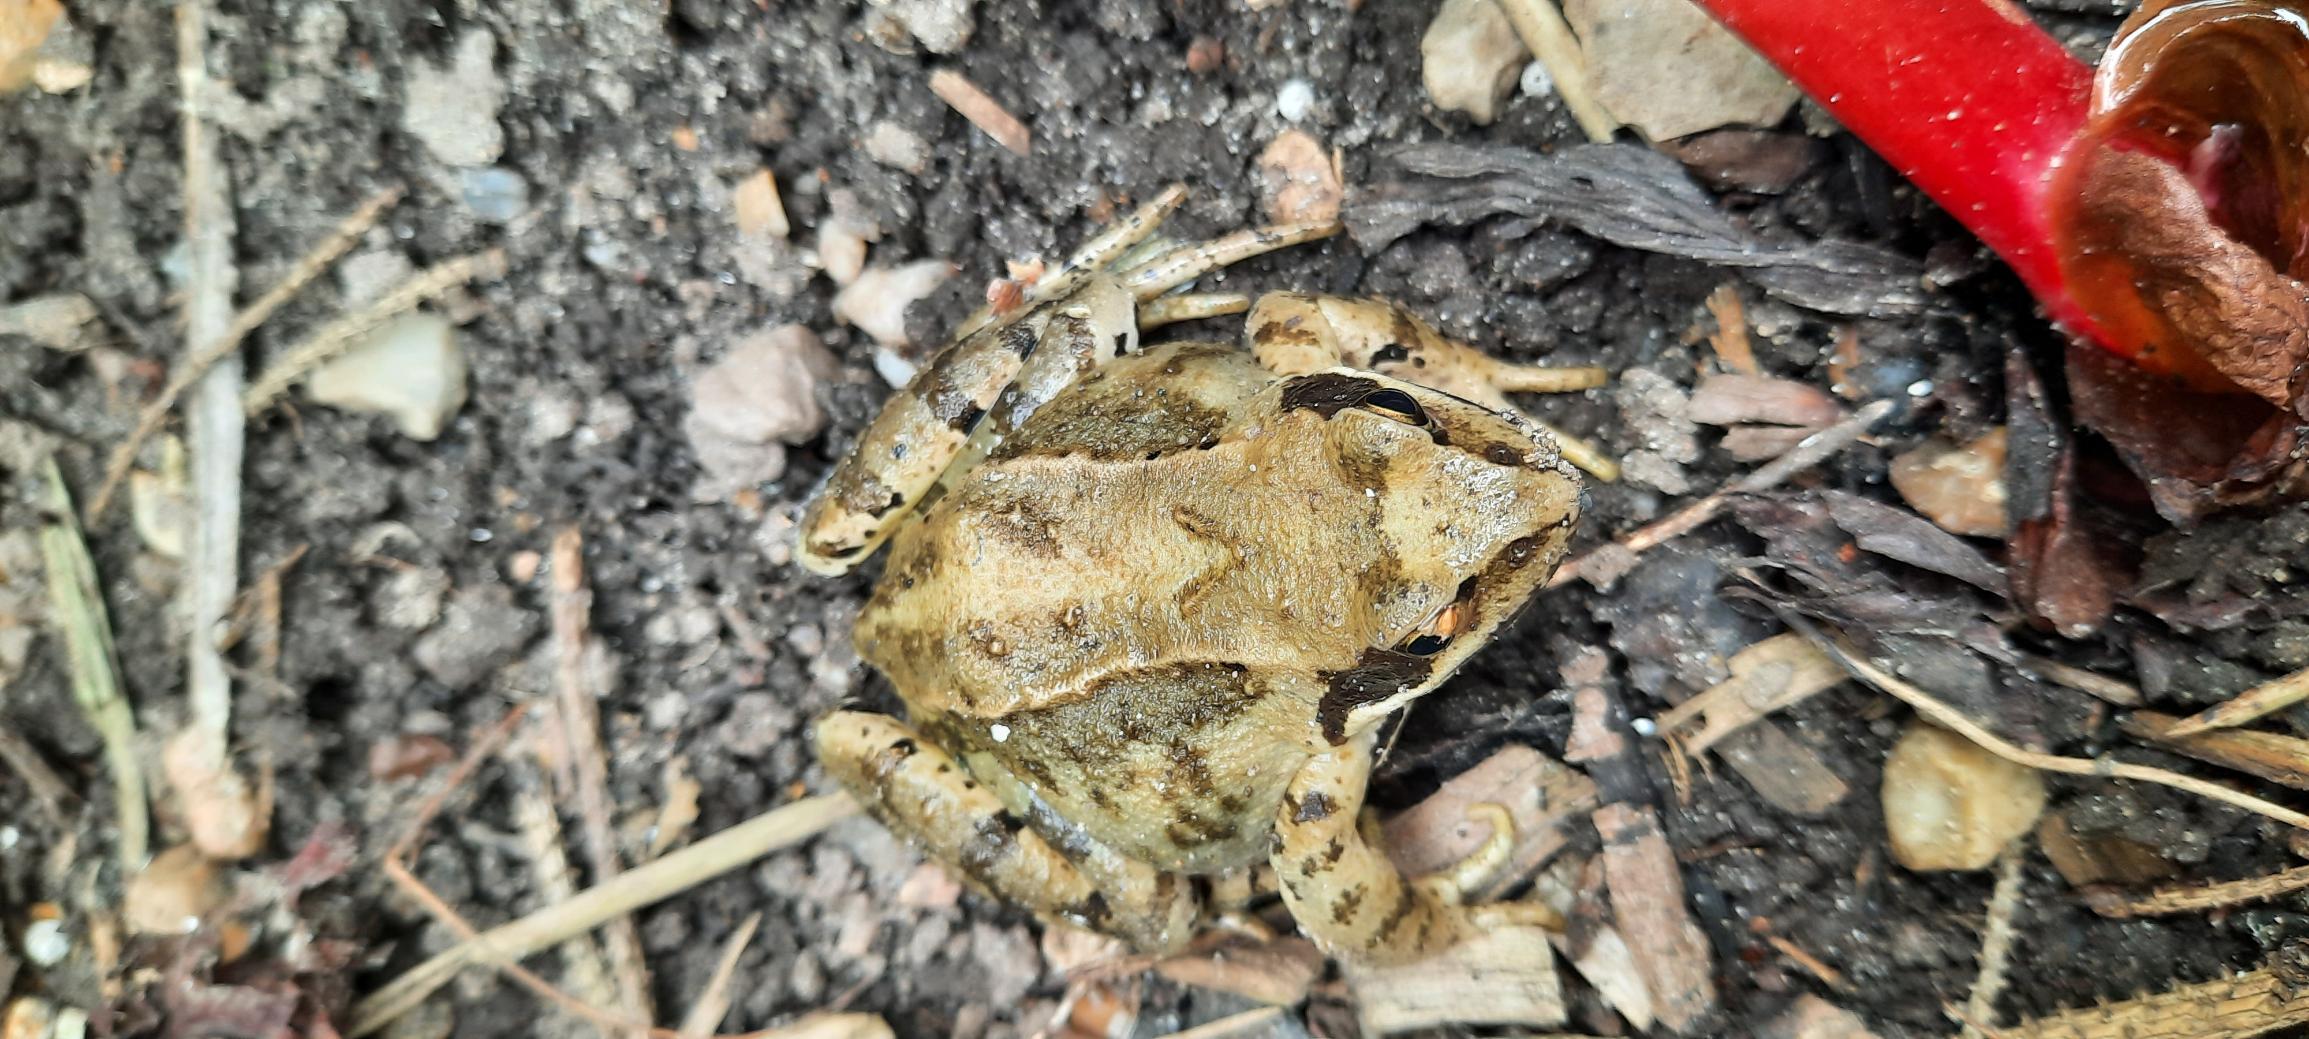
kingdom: Animalia
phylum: Chordata
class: Amphibia
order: Anura
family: Ranidae
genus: Rana
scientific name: Rana temporaria
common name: Butsnudet frø
